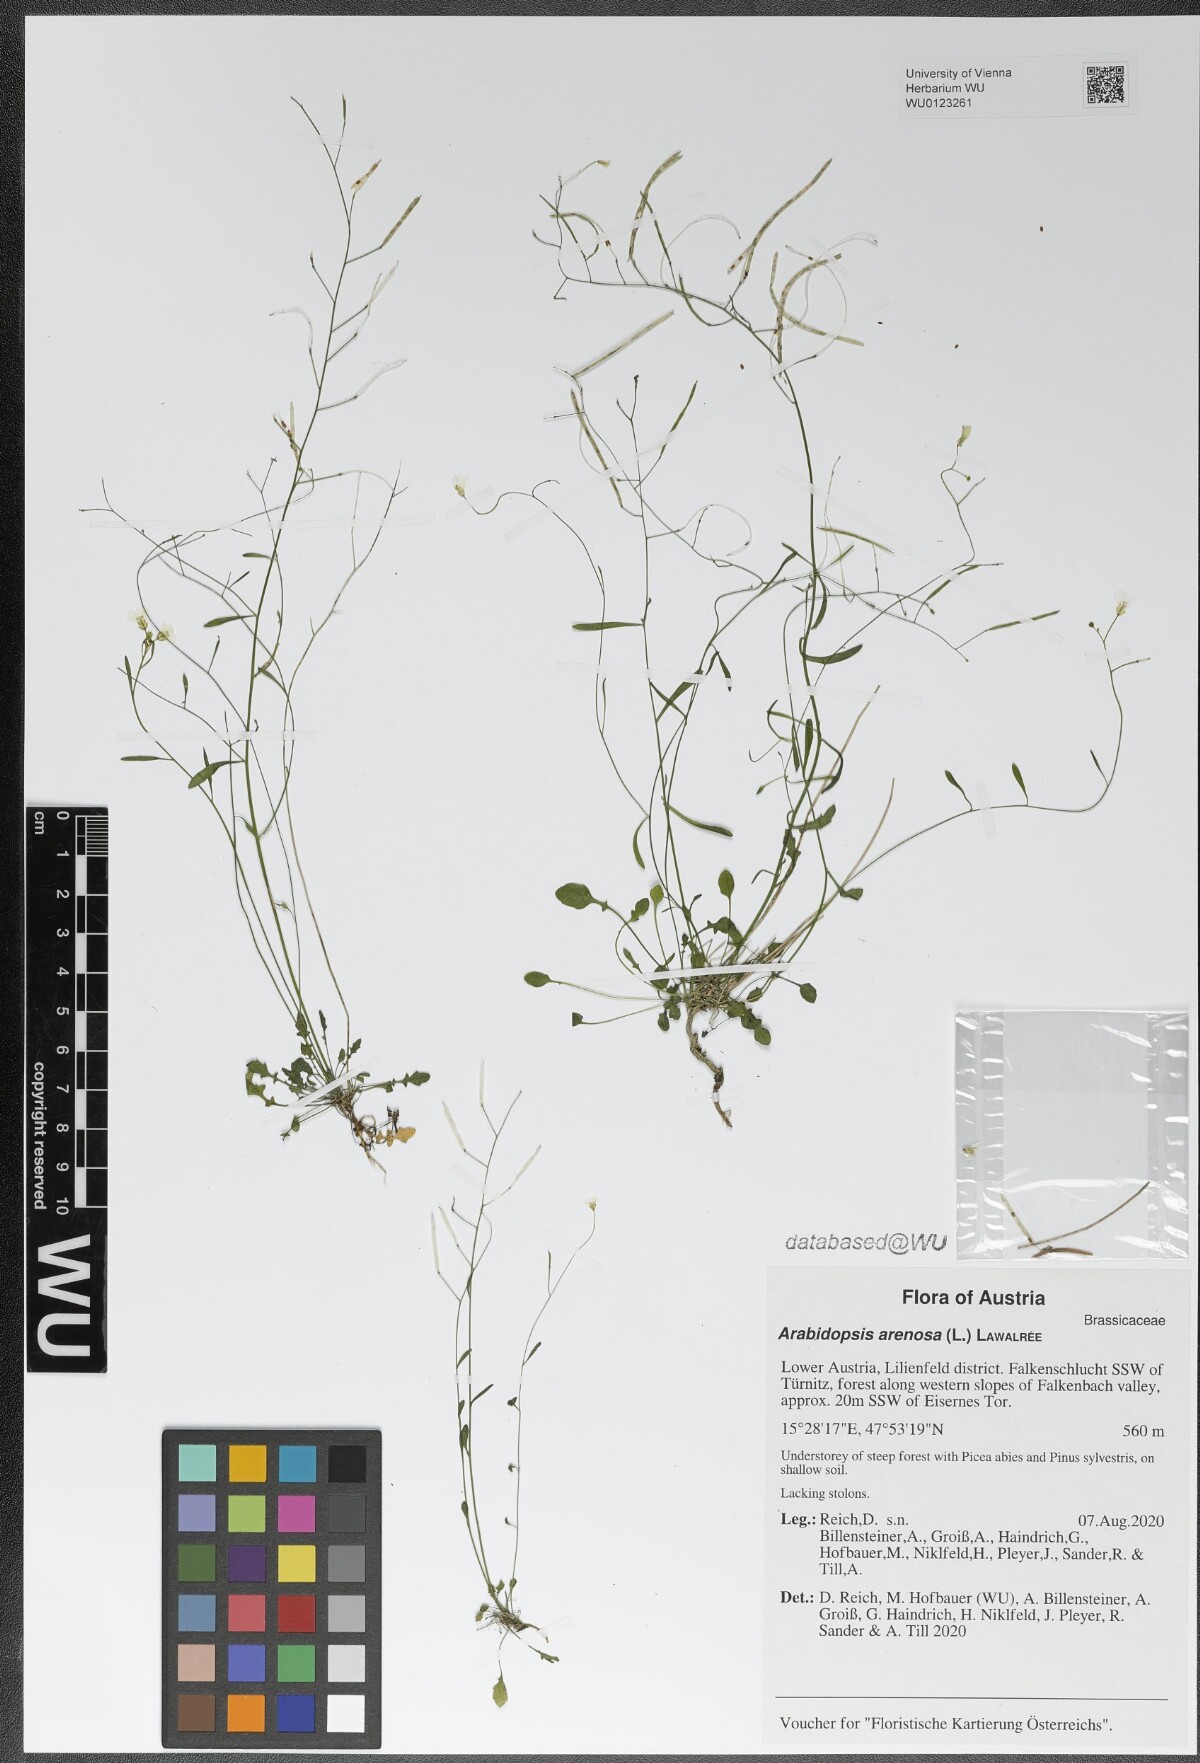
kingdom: Plantae
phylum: Tracheophyta
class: Magnoliopsida
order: Brassicales
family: Brassicaceae
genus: Arabidopsis
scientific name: Arabidopsis arenosa
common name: Sand rock-cress
